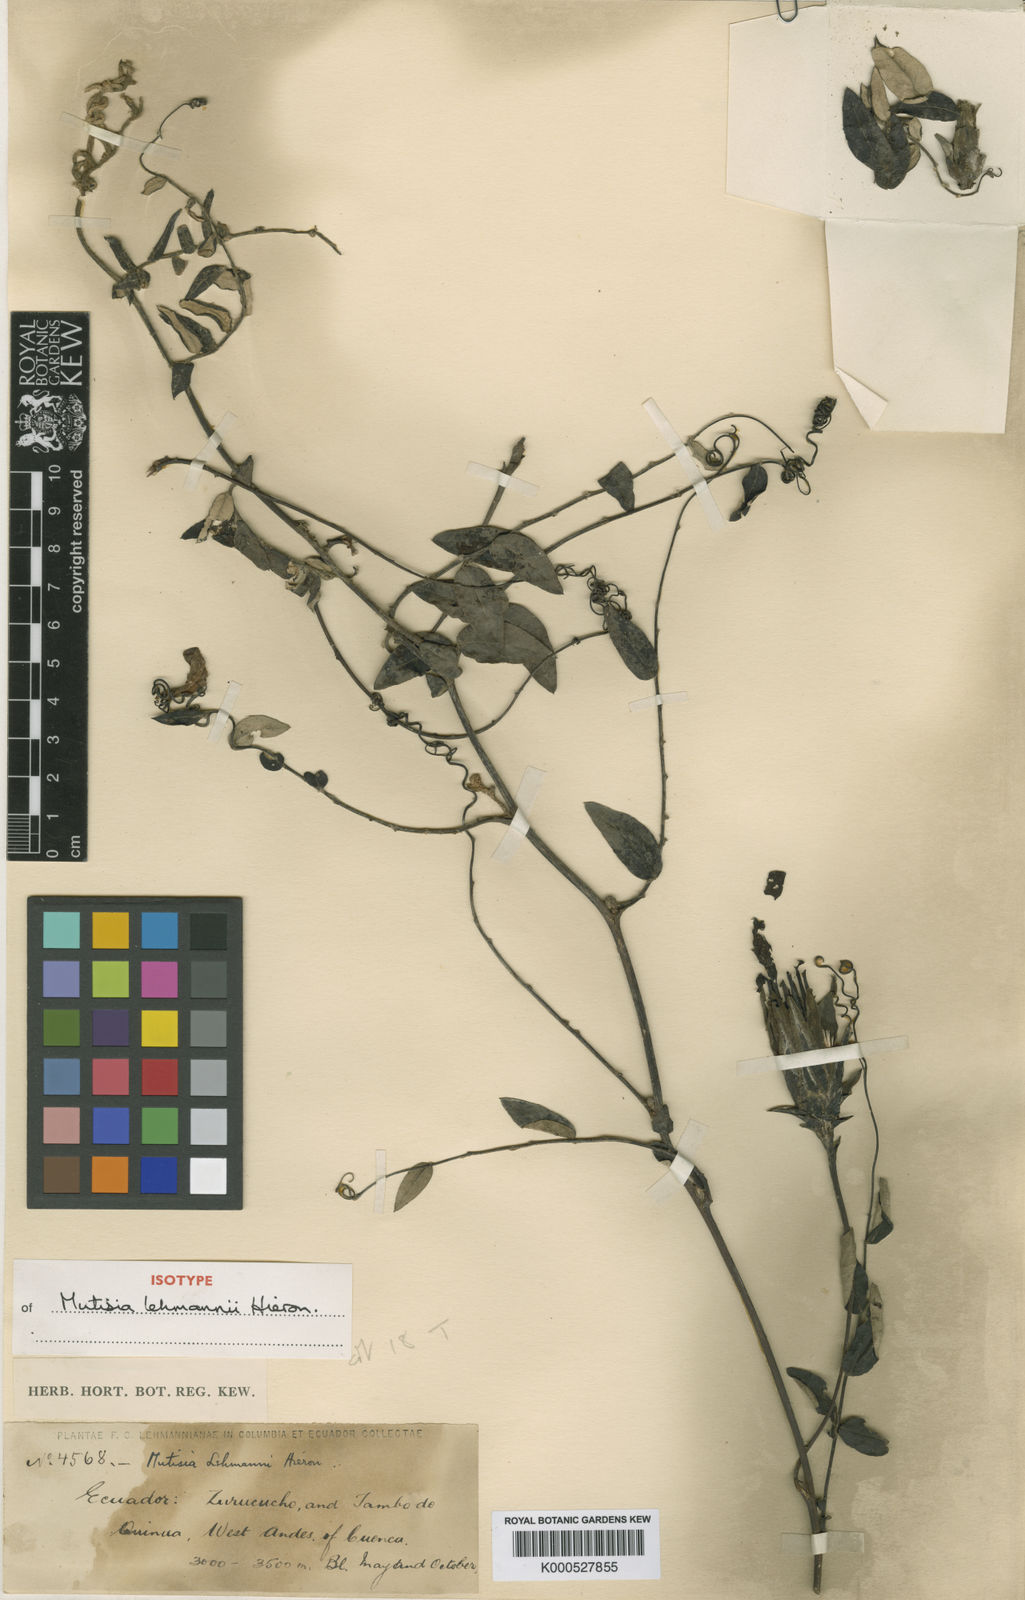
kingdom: Plantae
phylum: Tracheophyta
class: Magnoliopsida
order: Asterales
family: Asteraceae
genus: Mutisia
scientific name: Mutisia lehmannii
